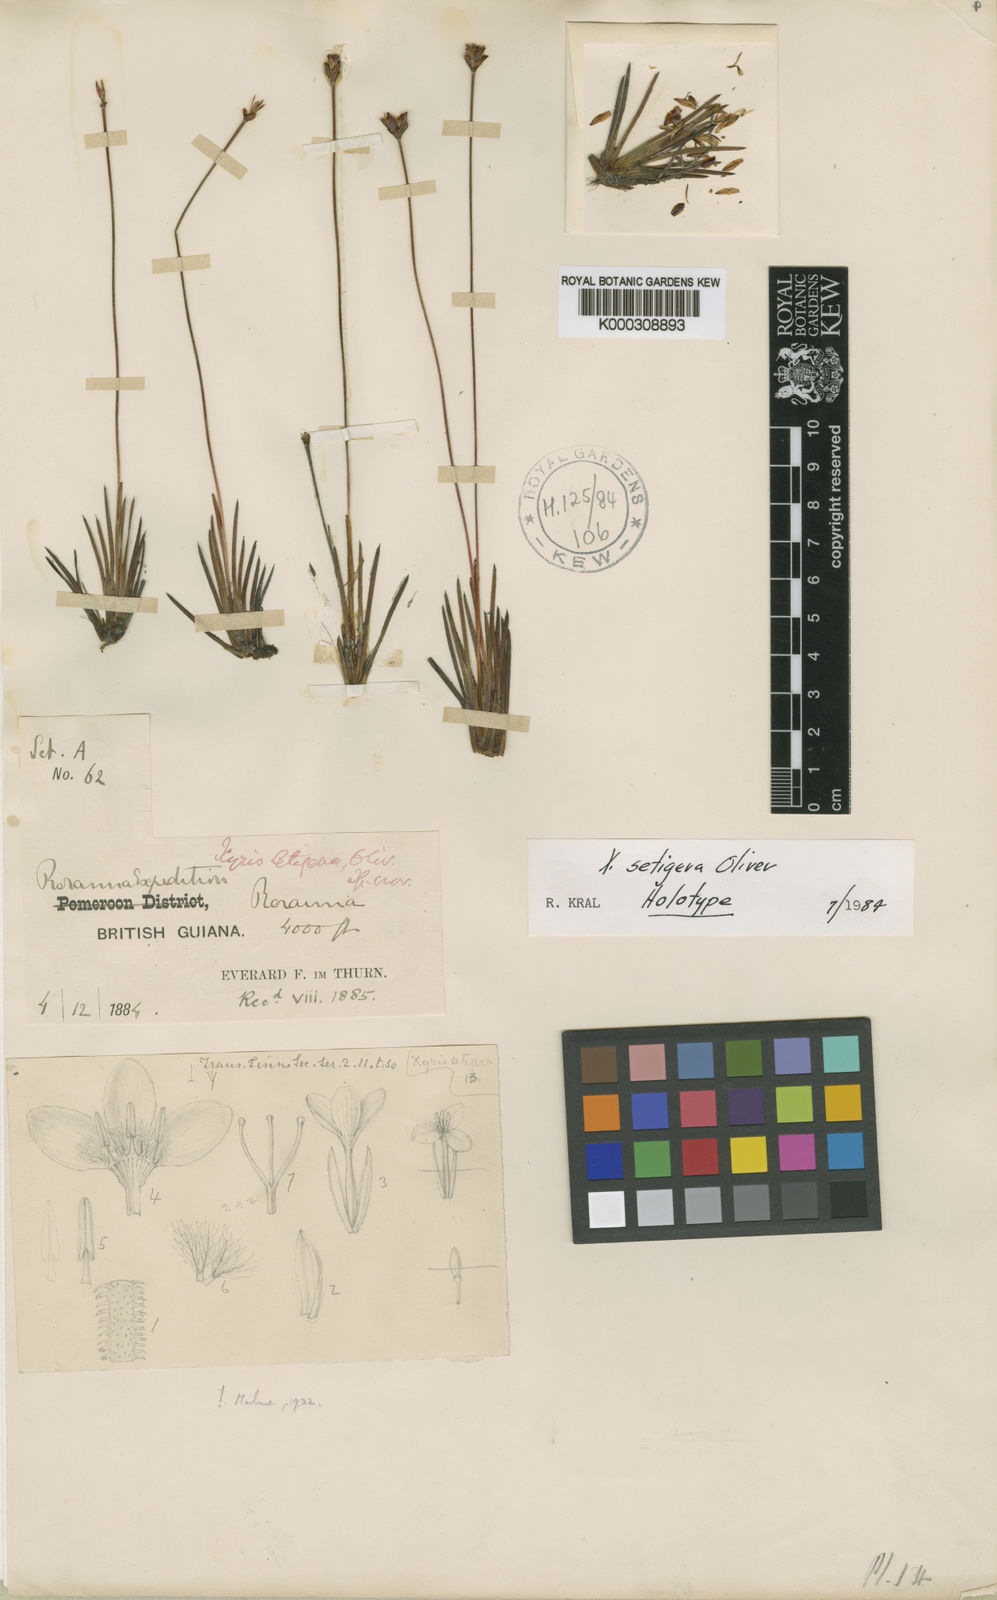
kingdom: Plantae
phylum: Tracheophyta
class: Liliopsida
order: Poales
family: Xyridaceae
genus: Xyris
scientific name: Xyris
